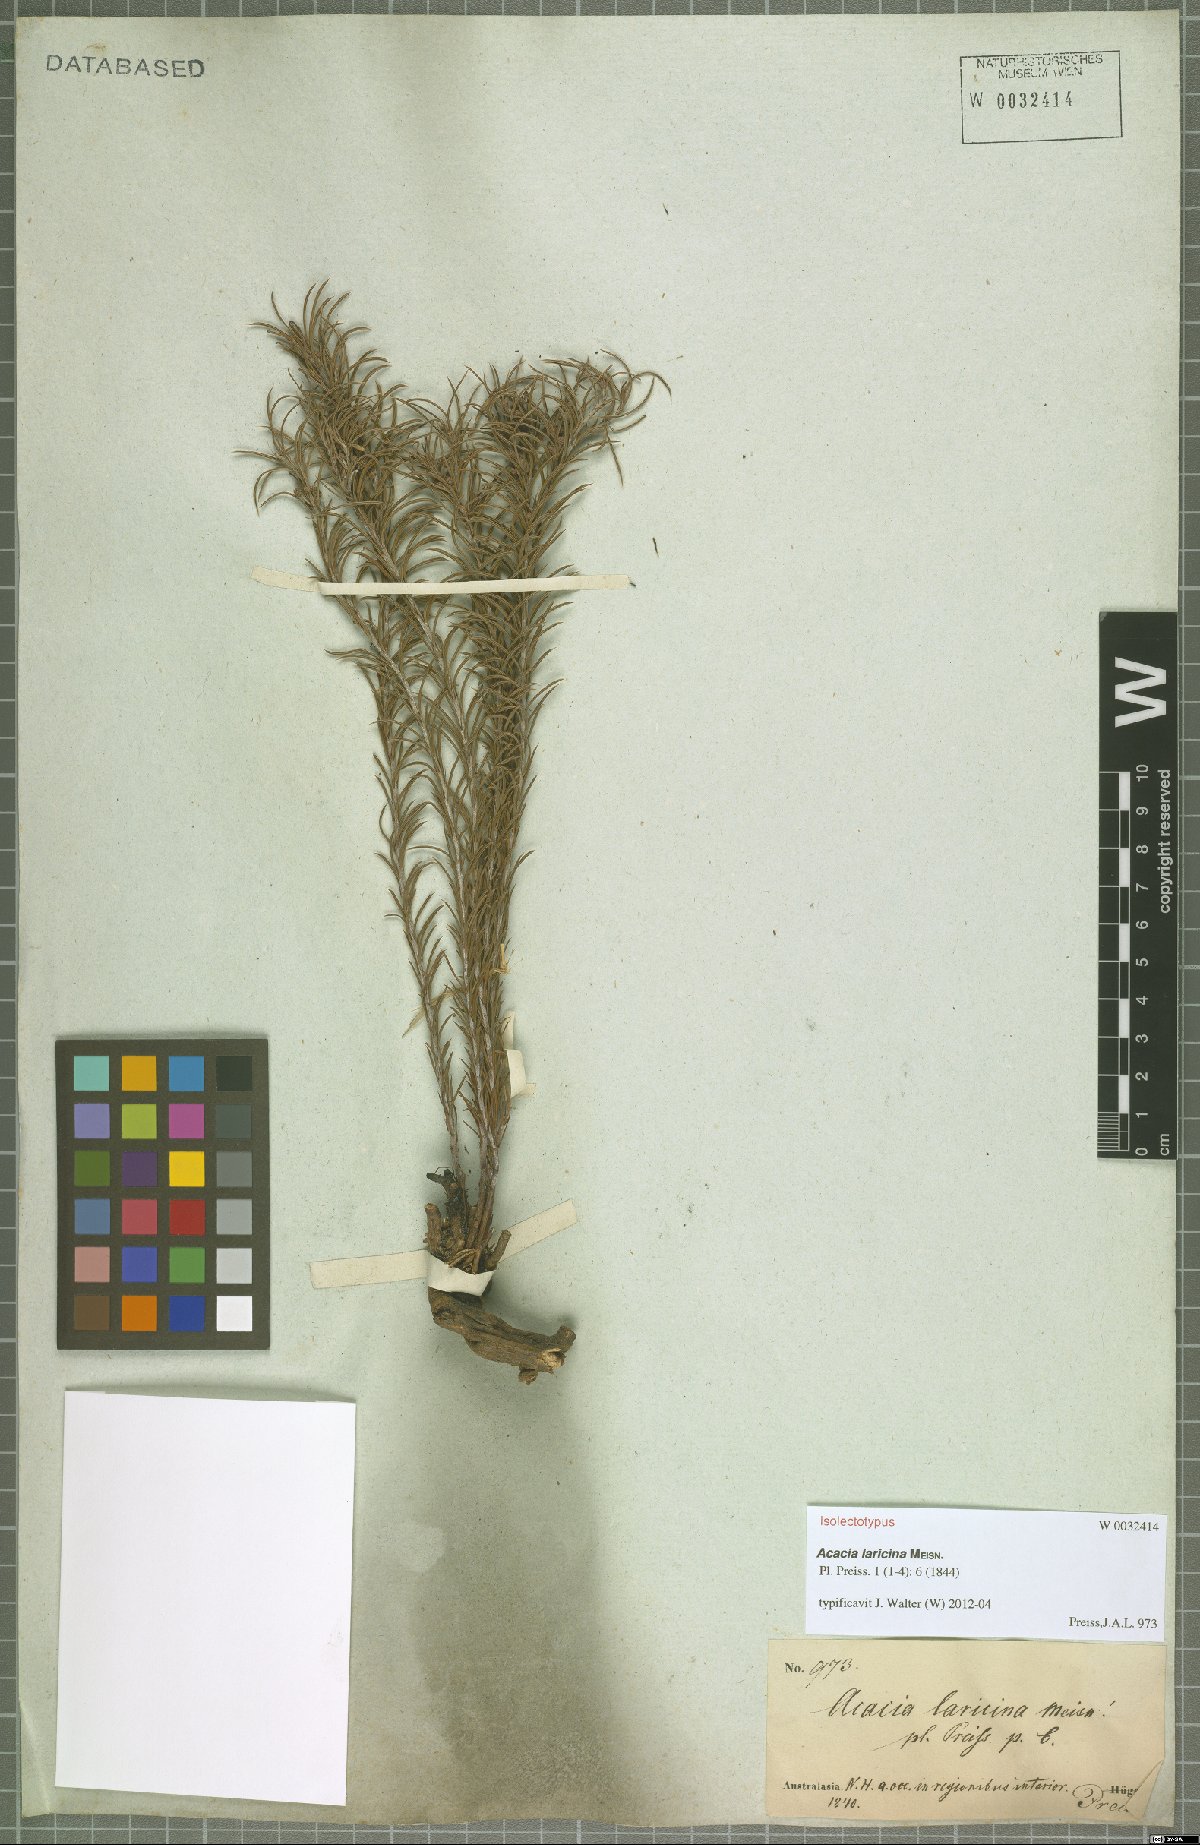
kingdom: Plantae
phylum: Tracheophyta
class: Magnoliopsida
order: Fabales
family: Fabaceae
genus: Acacia
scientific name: Acacia laricina
